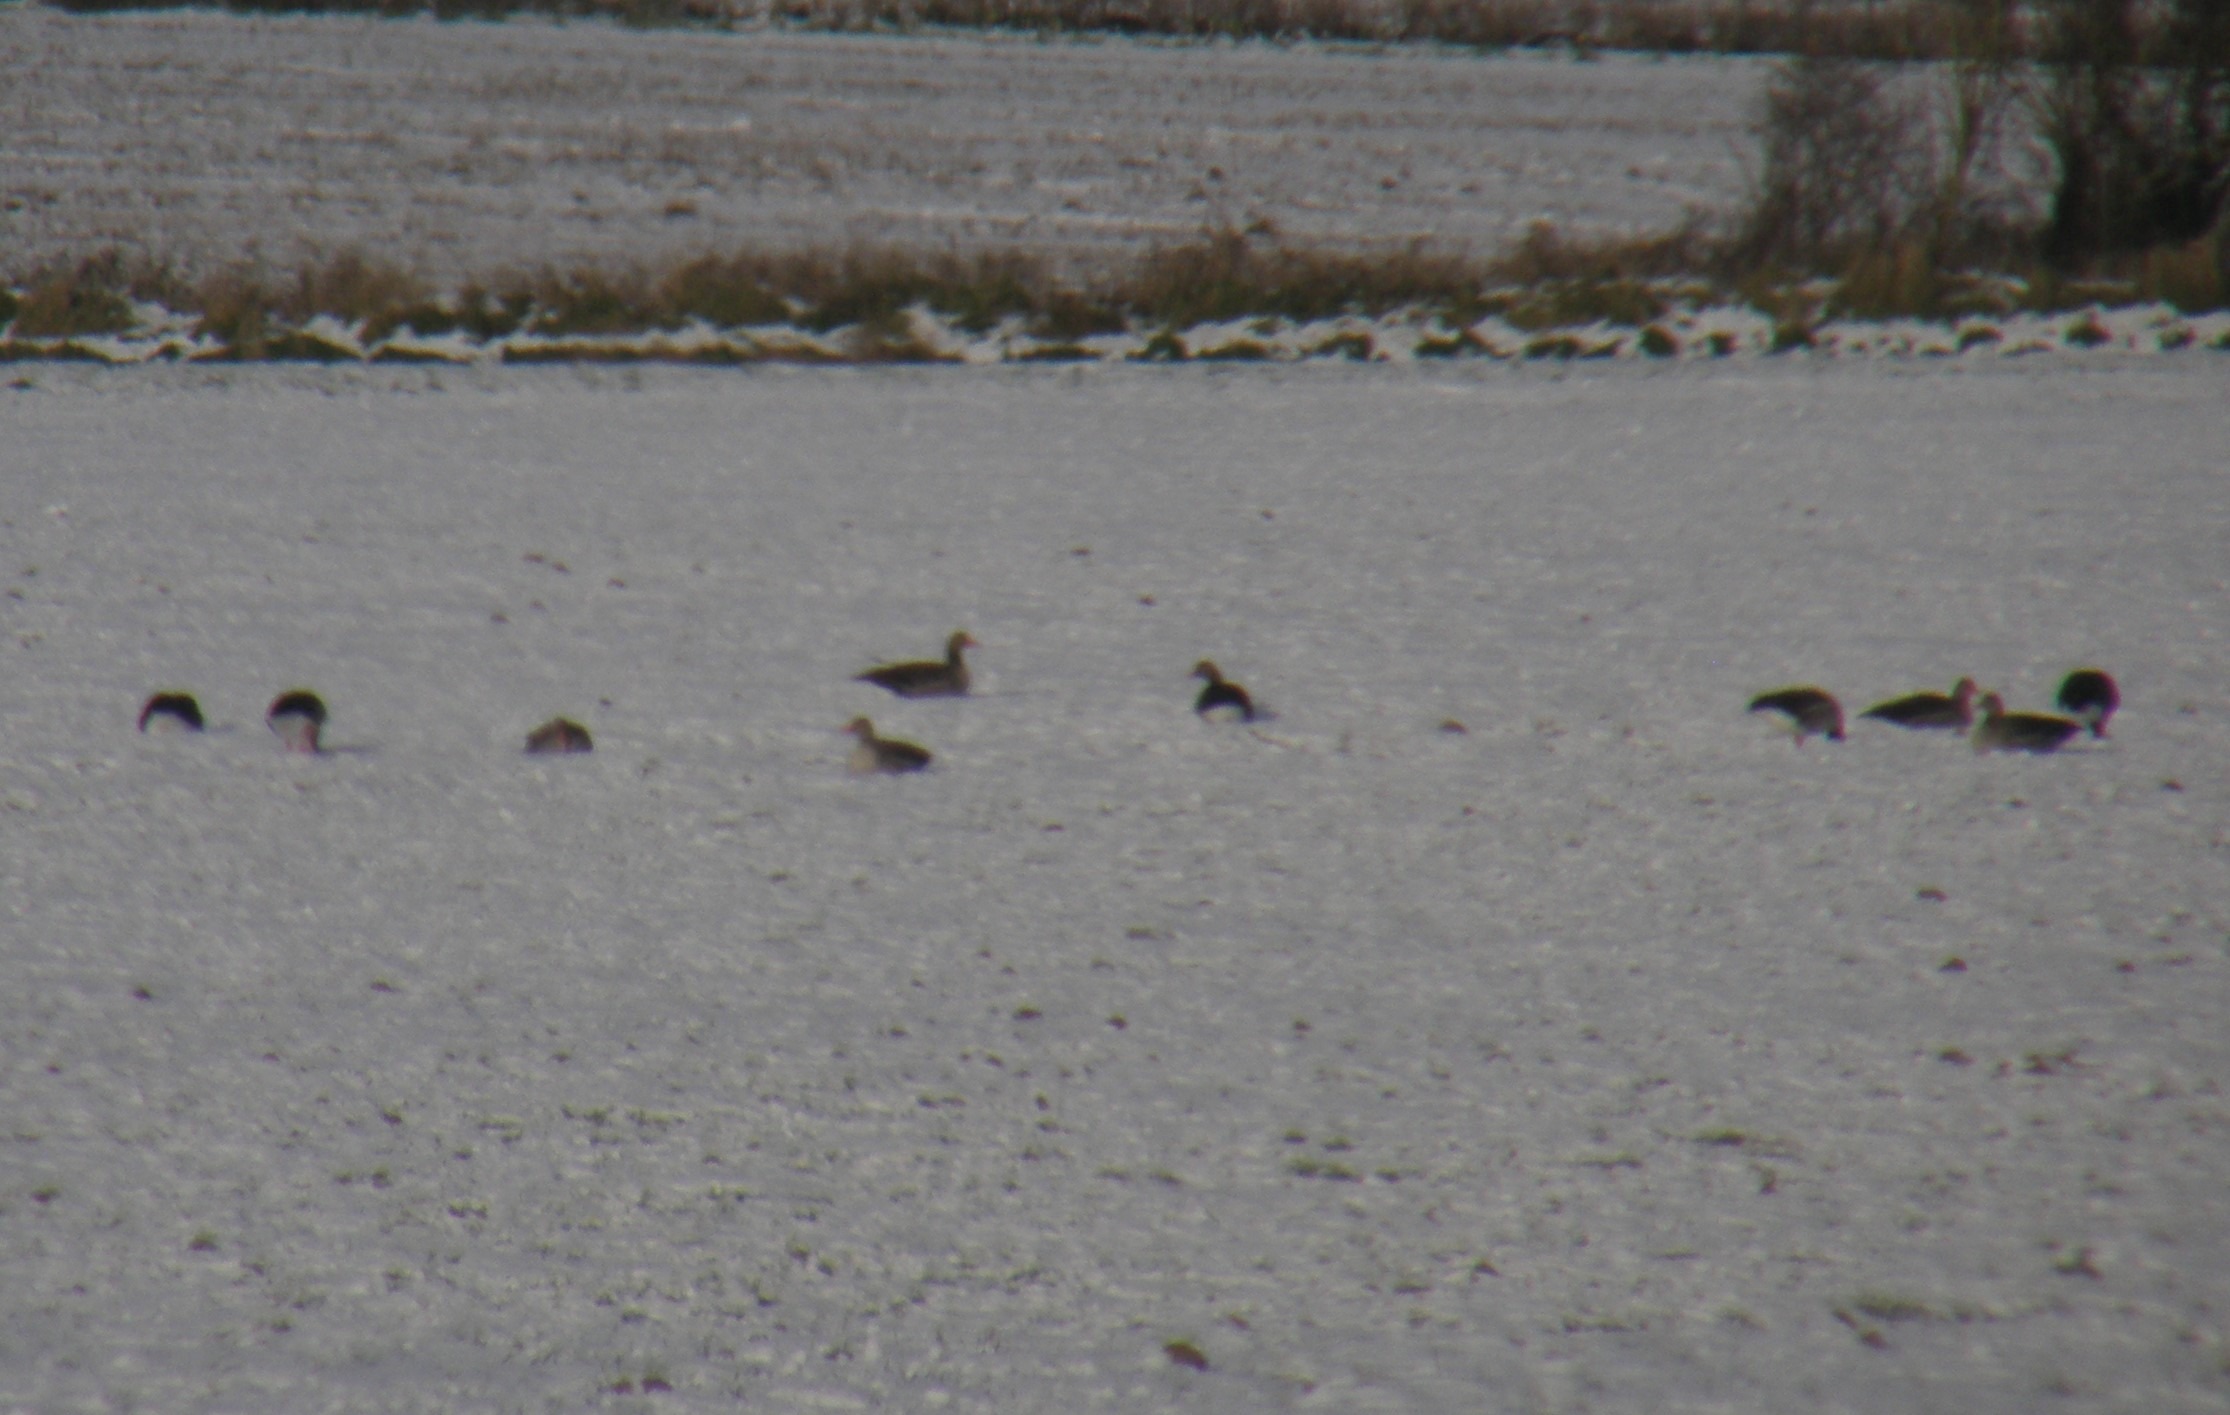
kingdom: Animalia
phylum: Chordata
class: Aves
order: Anseriformes
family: Anatidae
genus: Anser
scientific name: Anser anser
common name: Grågås
